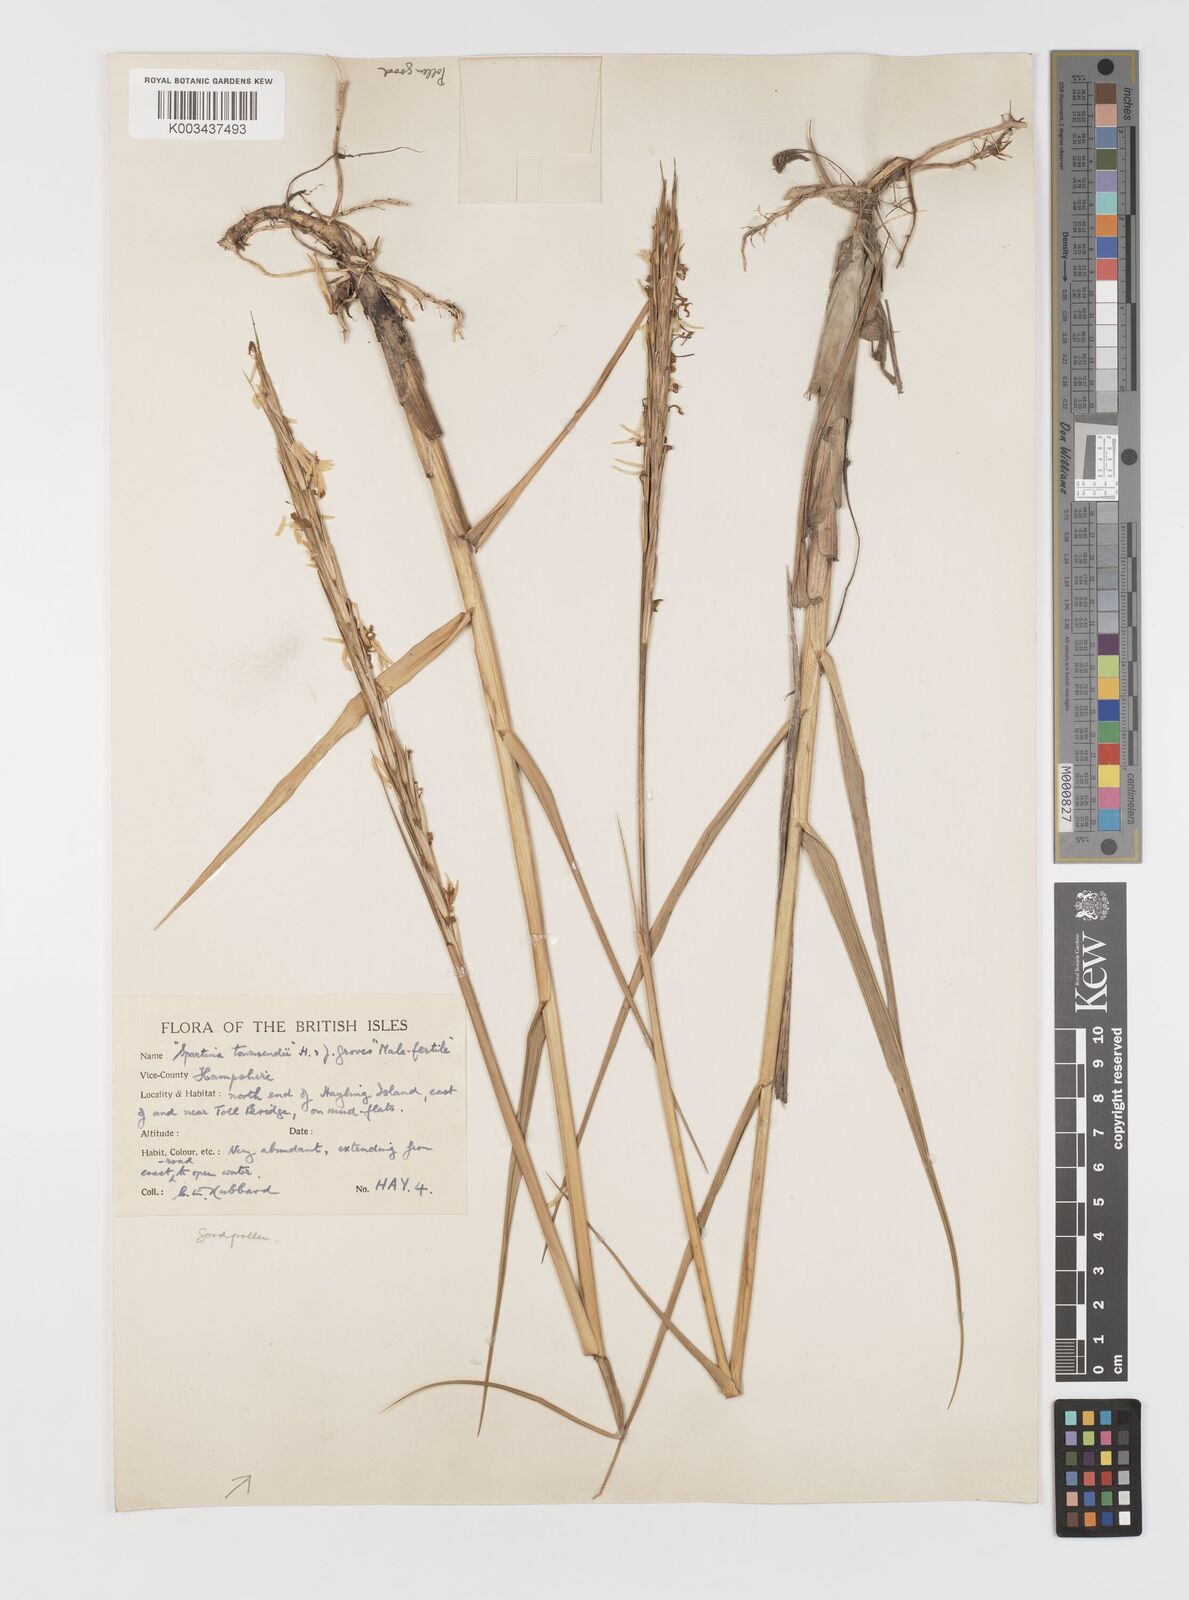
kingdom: Plantae
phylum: Tracheophyta
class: Liliopsida
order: Poales
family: Poaceae
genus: Sporobolus
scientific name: Sporobolus anglicus
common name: English cordgrass
